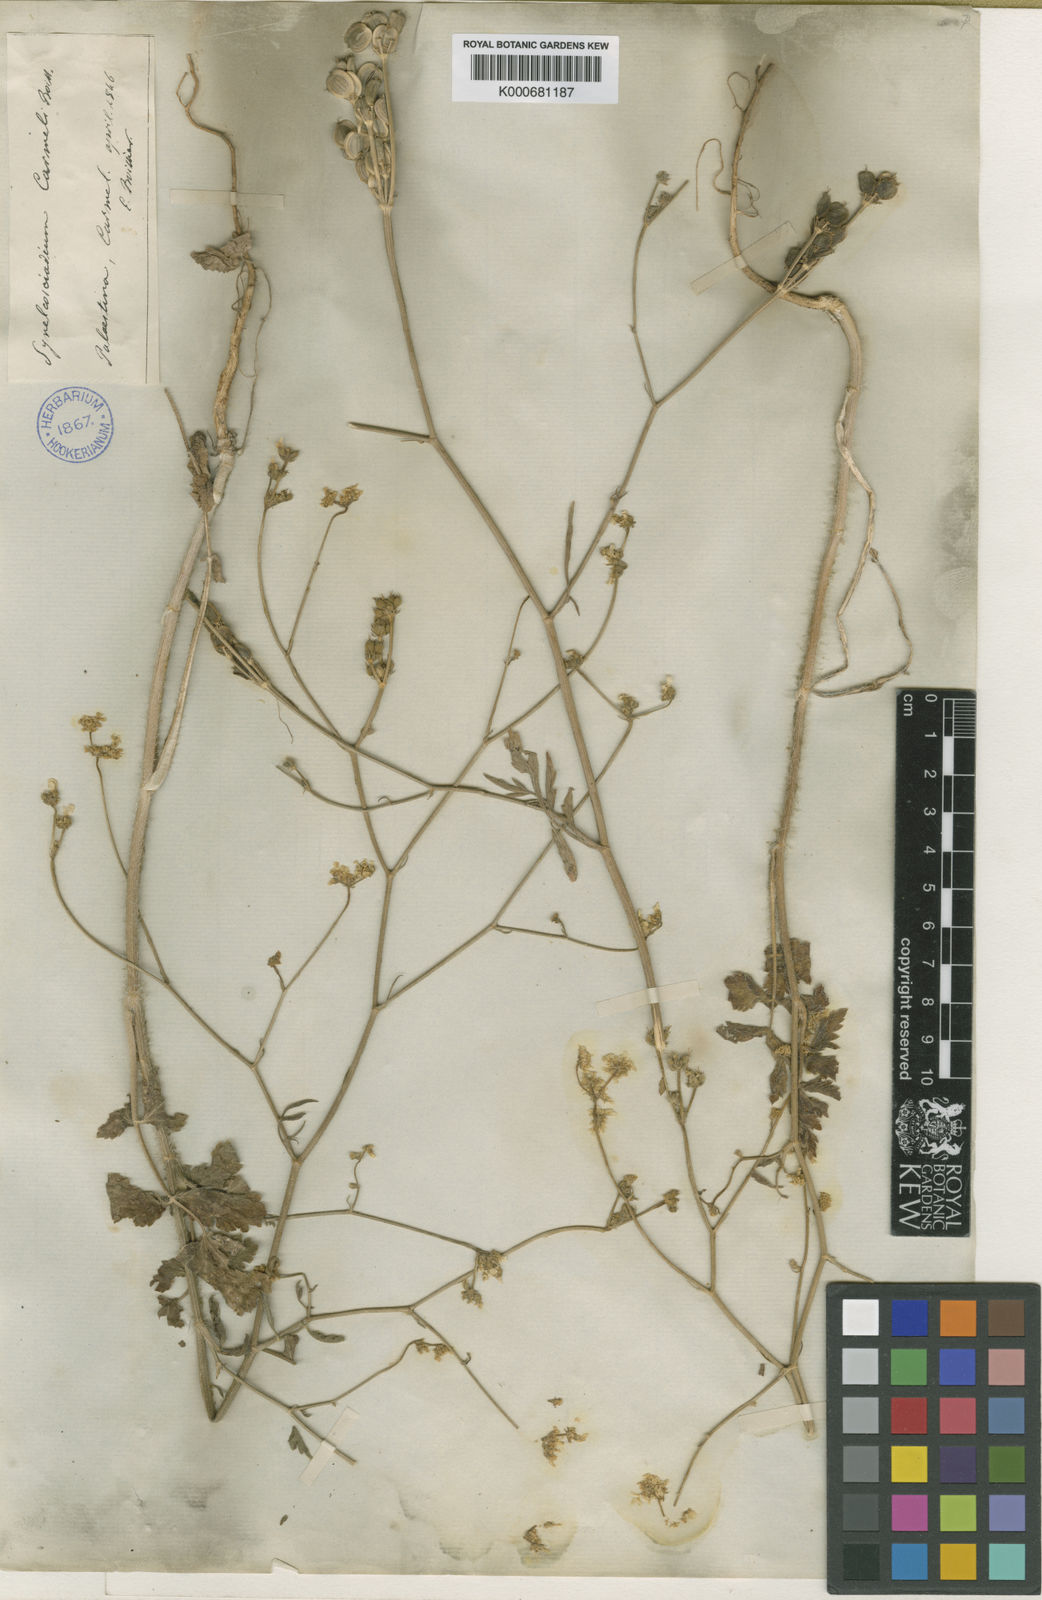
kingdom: Plantae
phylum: Tracheophyta
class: Magnoliopsida
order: Apiales
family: Apiaceae
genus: Synelcosciadium
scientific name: Synelcosciadium carmeli
